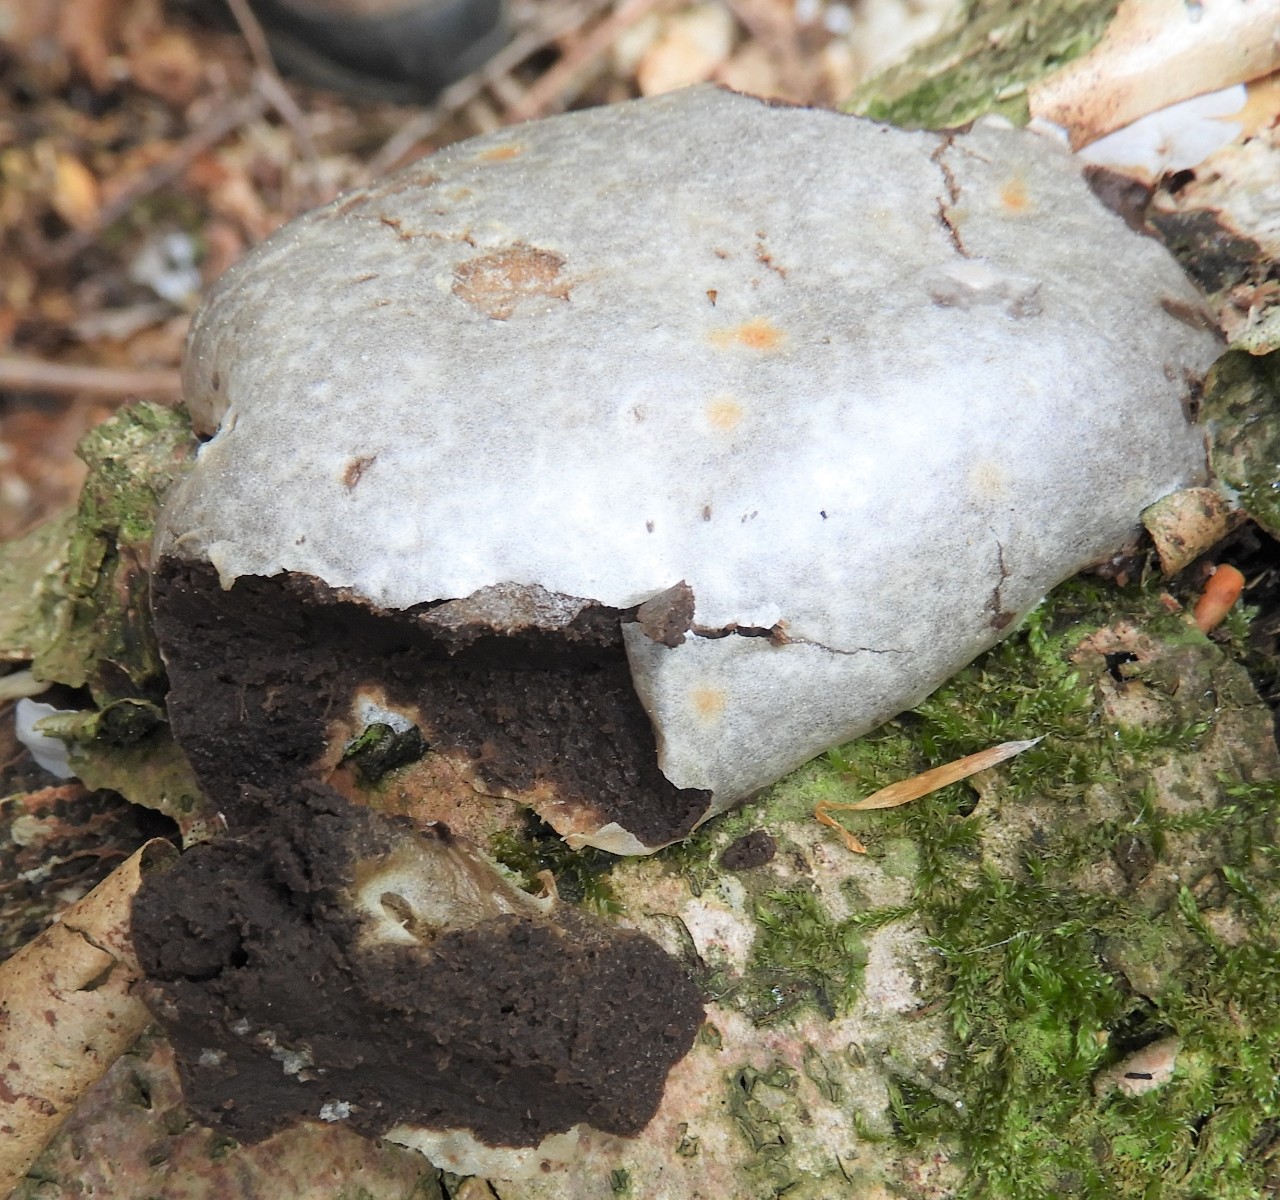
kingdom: Protozoa
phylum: Mycetozoa
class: Myxomycetes
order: Cribrariales
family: Tubiferaceae
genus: Reticularia
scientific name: Reticularia lycoperdon
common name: skinnende støvpude
